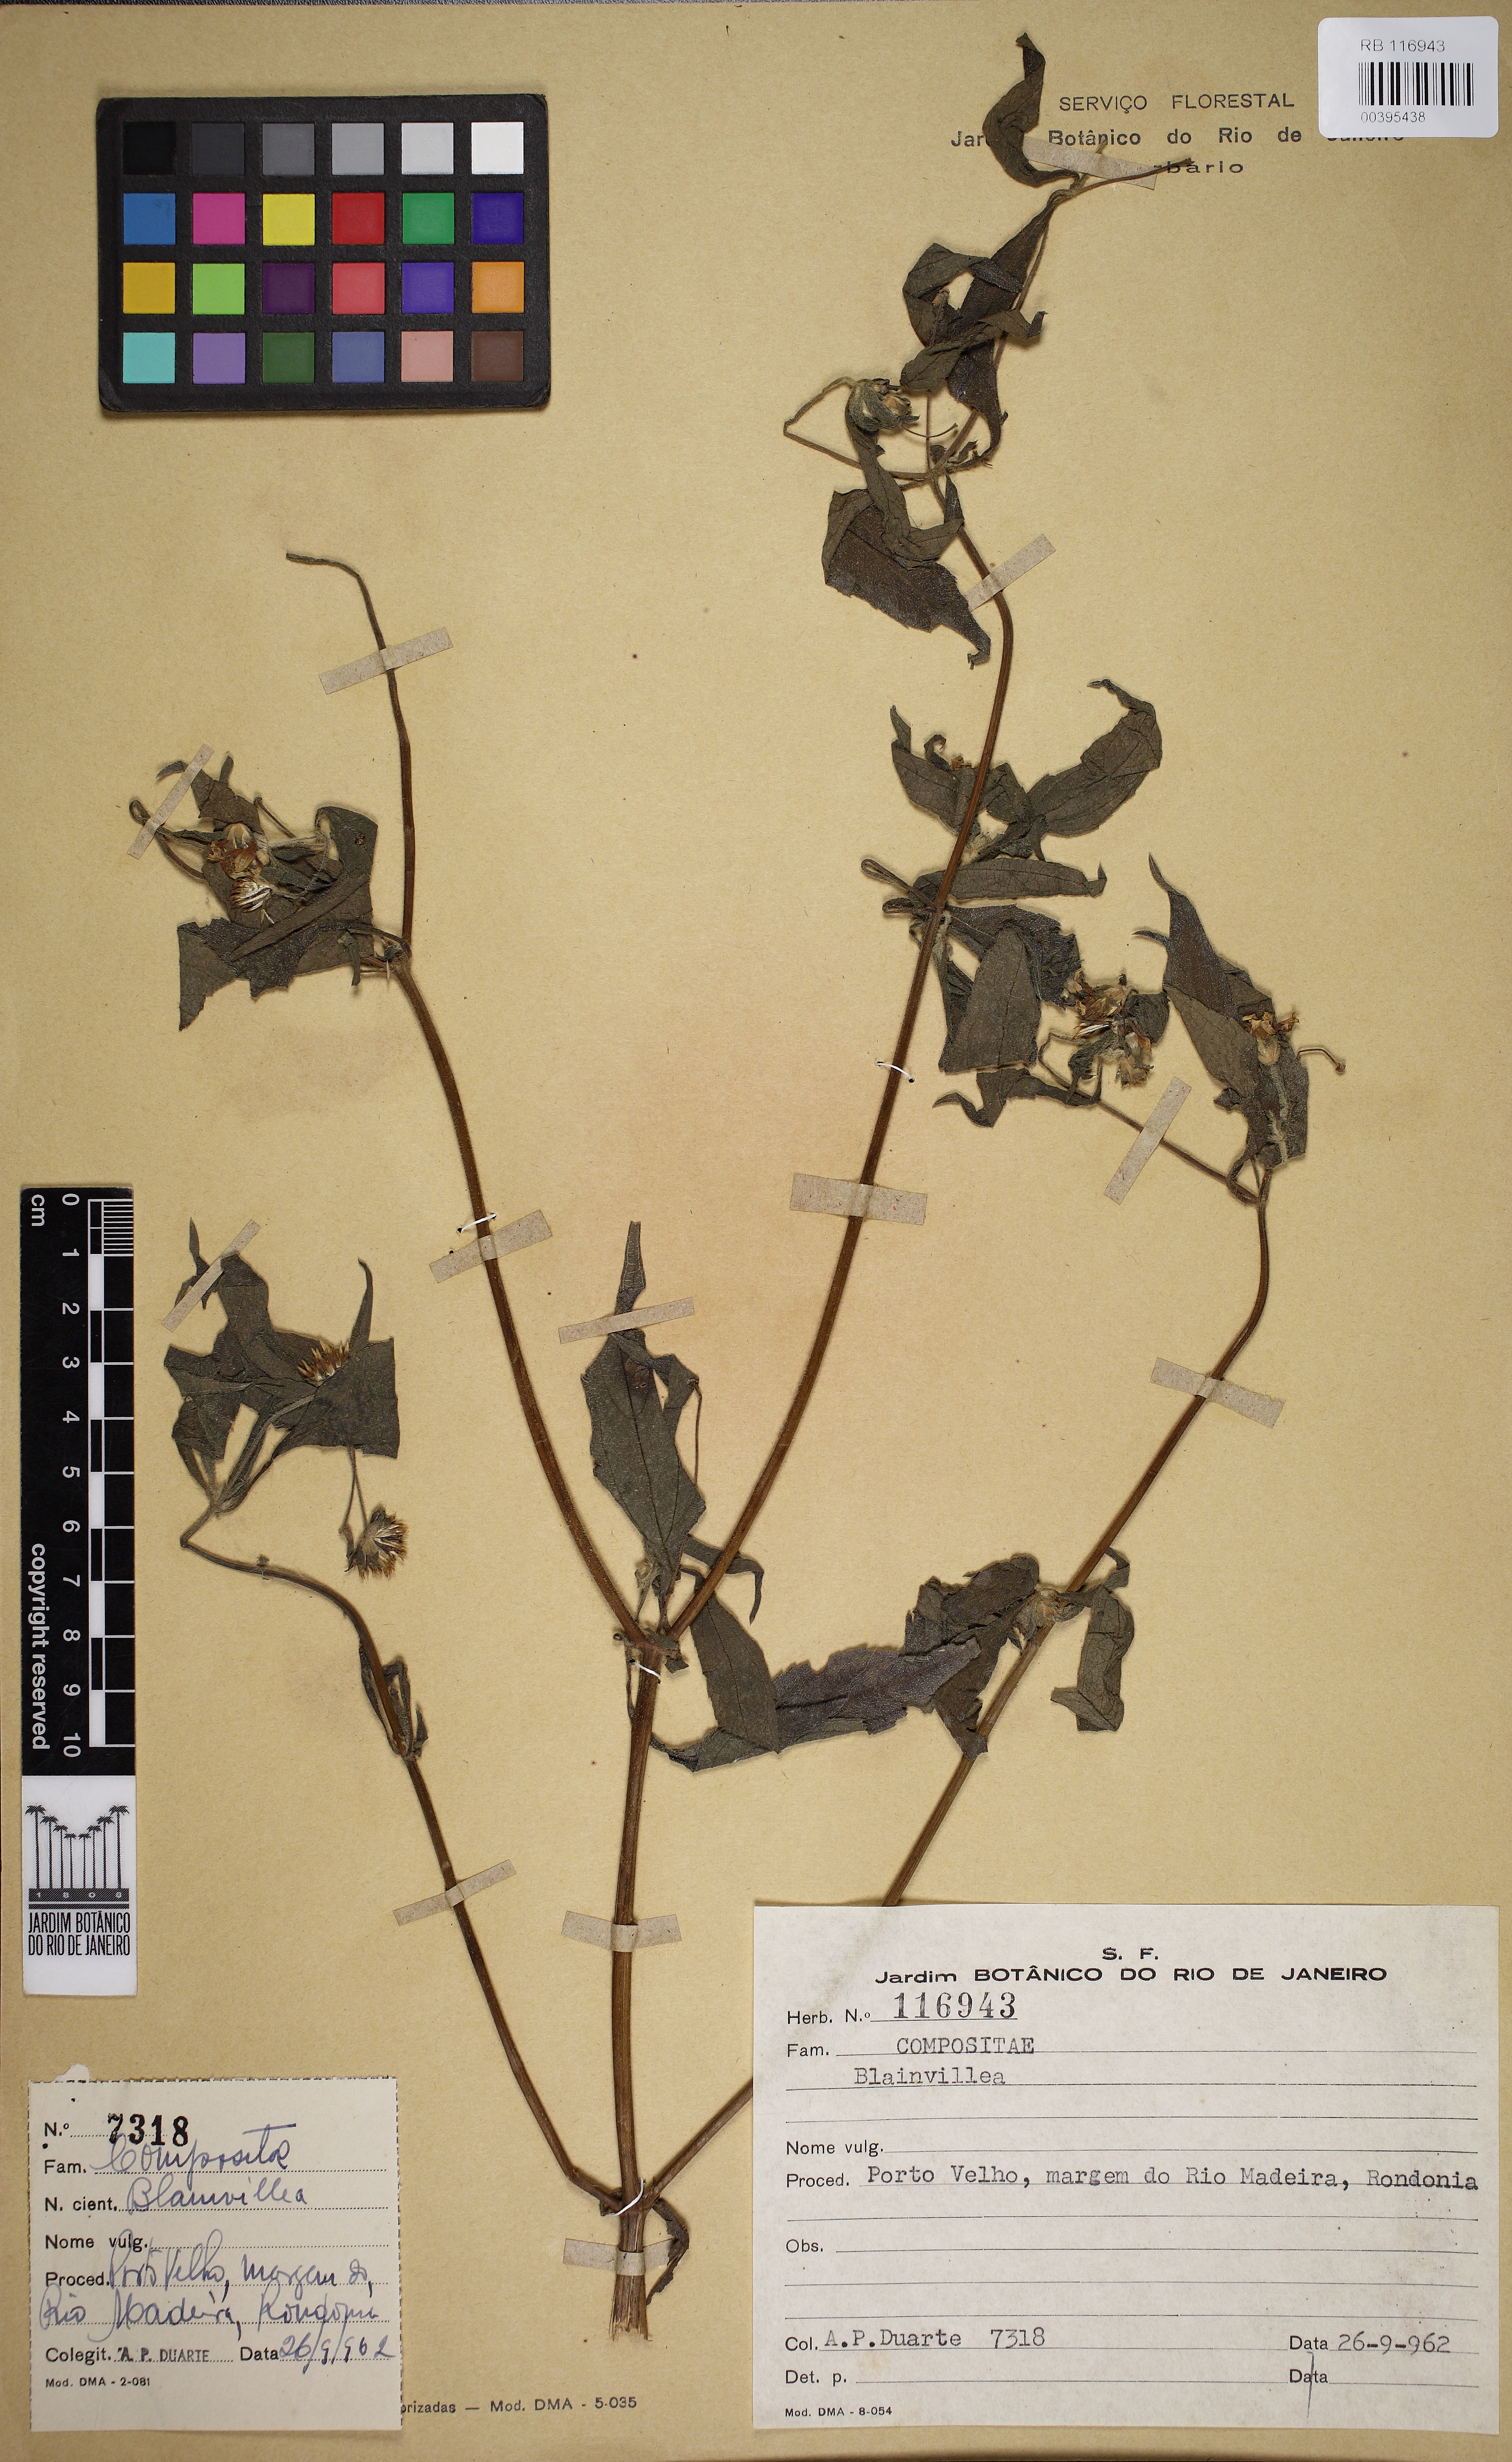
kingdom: Plantae
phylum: Tracheophyta
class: Magnoliopsida
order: Asterales
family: Asteraceae
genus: Blainvillea
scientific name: Blainvillea
